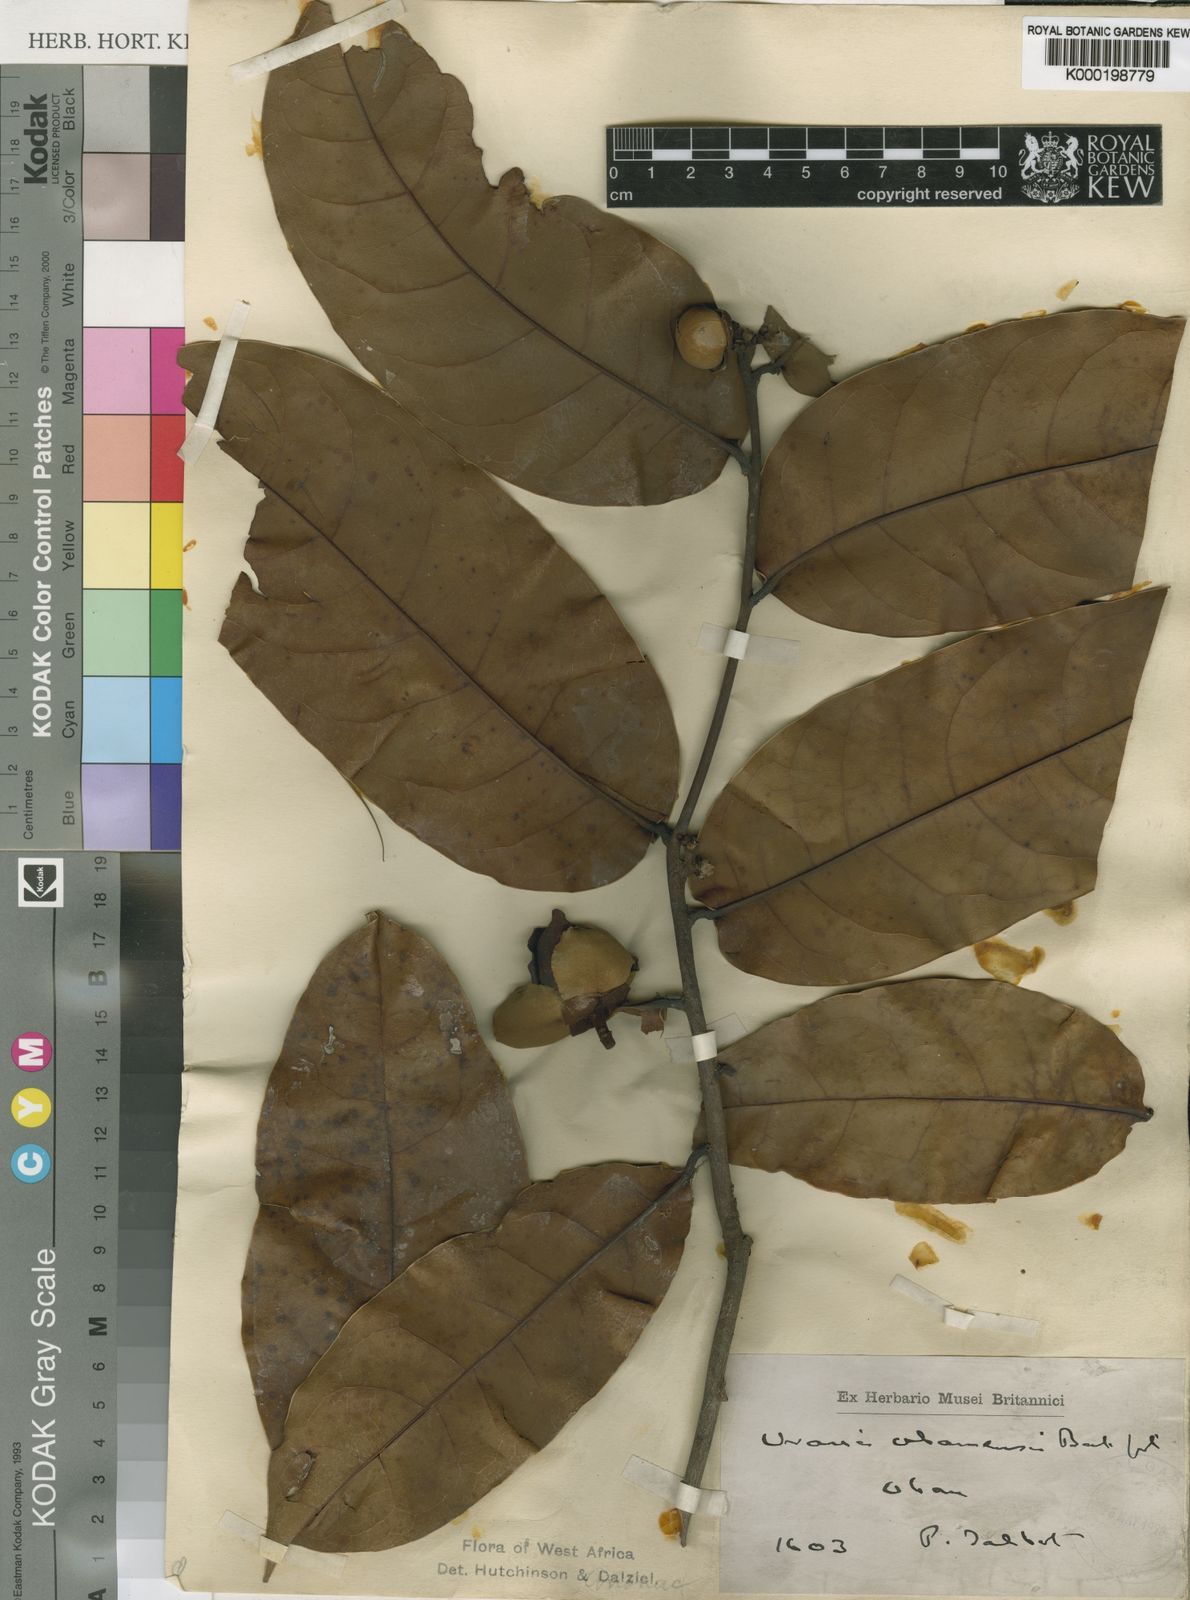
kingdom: Plantae
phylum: Tracheophyta
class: Magnoliopsida
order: Magnoliales
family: Annonaceae
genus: Uvaria
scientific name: Uvaria obanensis
